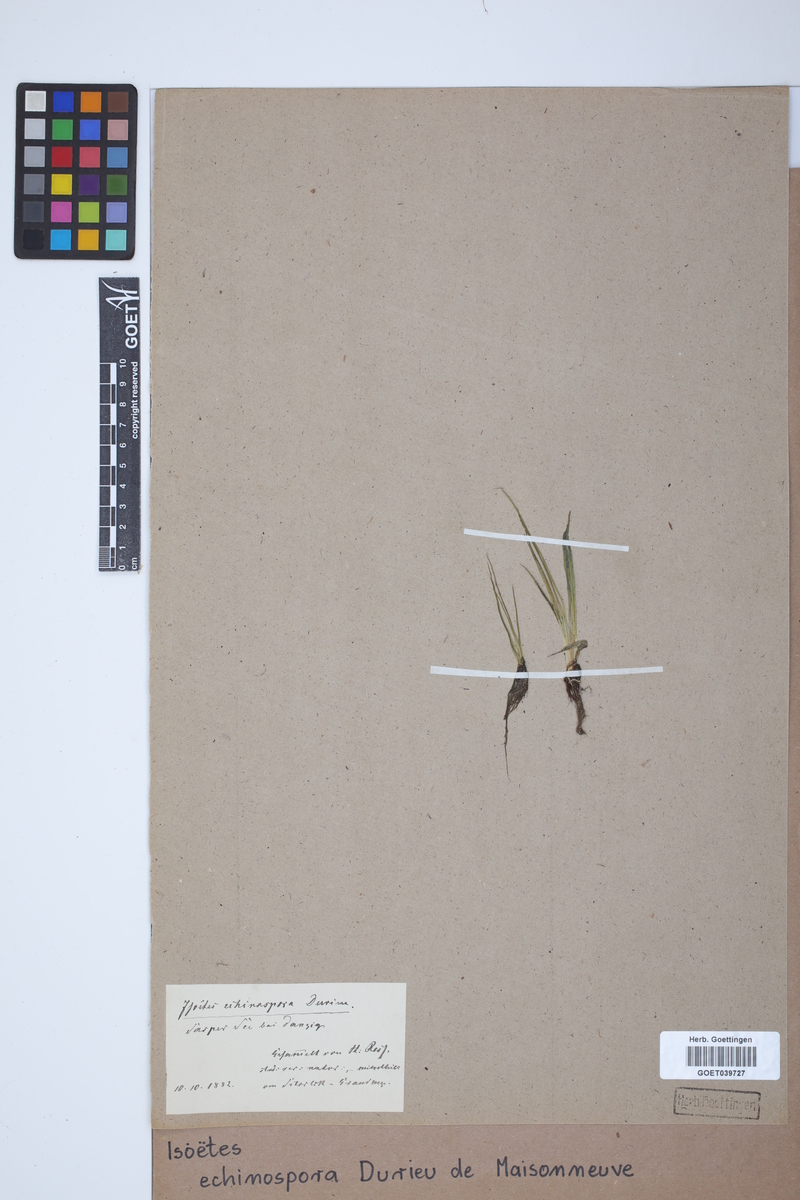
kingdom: Plantae
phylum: Tracheophyta
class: Lycopodiopsida
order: Isoetales
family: Isoetaceae
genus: Isoetes
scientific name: Isoetes echinospora
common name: Spring quillwort
